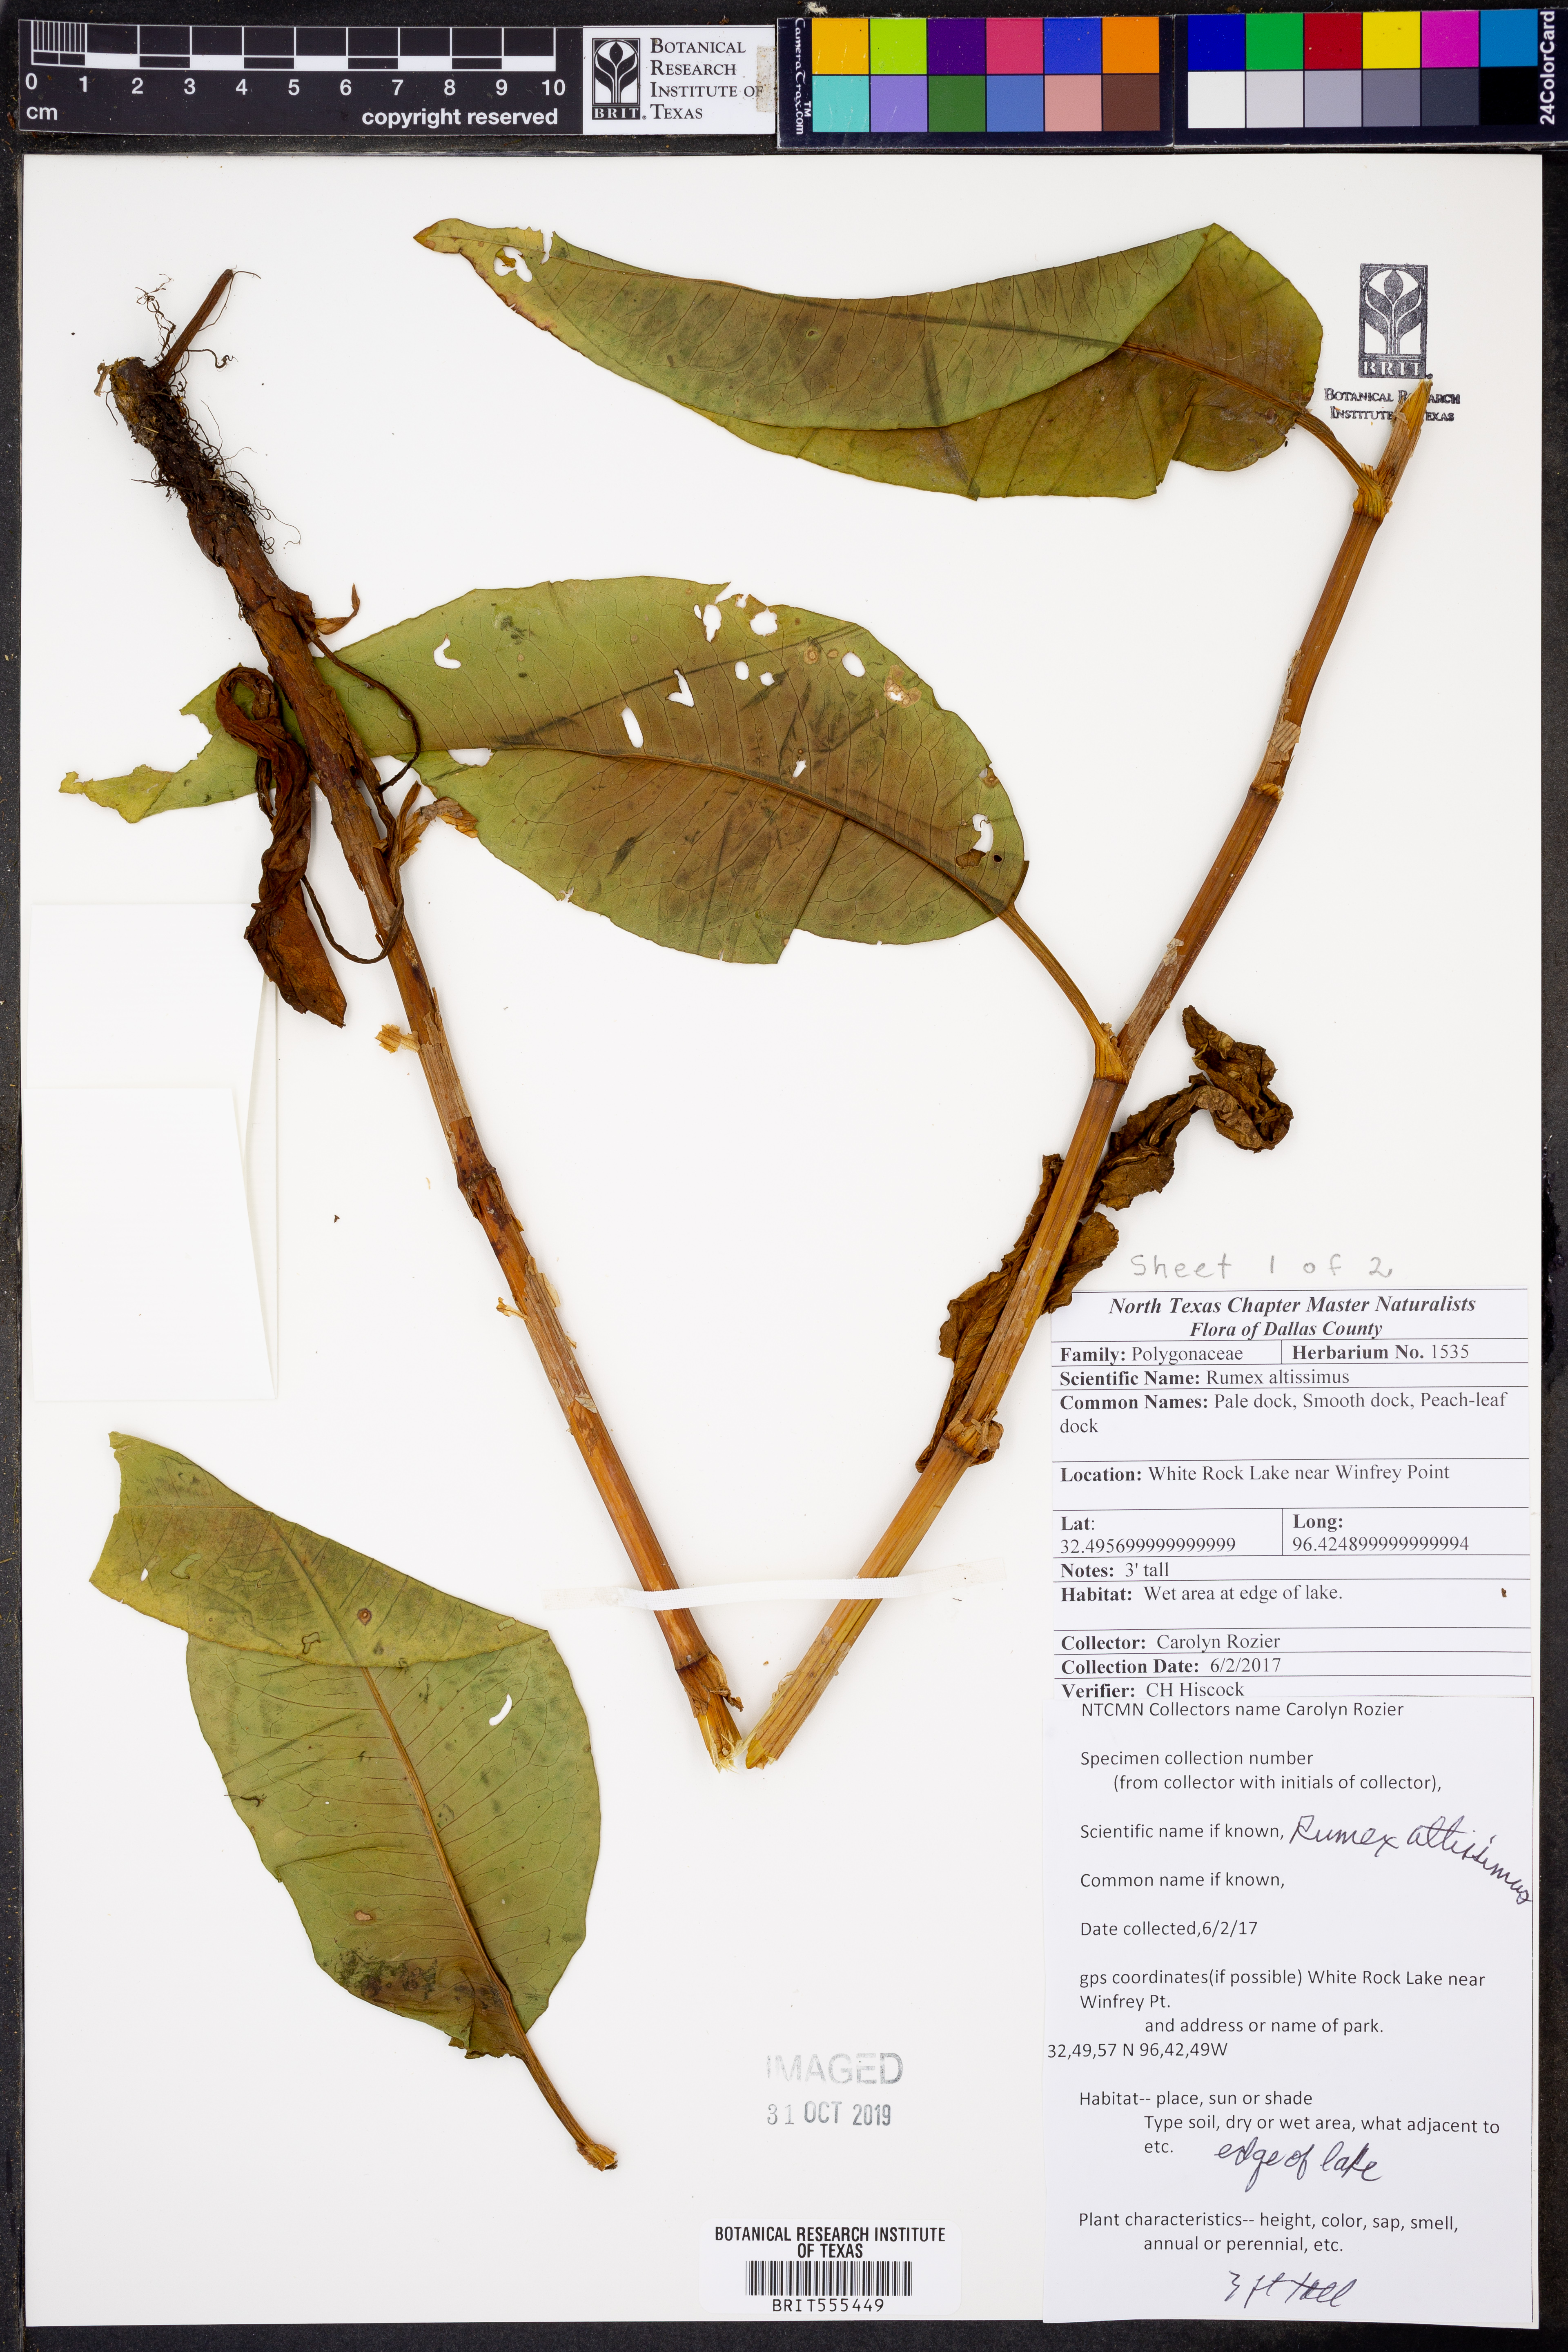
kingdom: Plantae
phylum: Tracheophyta
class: Magnoliopsida
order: Caryophyllales
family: Polygonaceae
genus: Rumex
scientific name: Rumex altissimus
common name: Smooth dock
